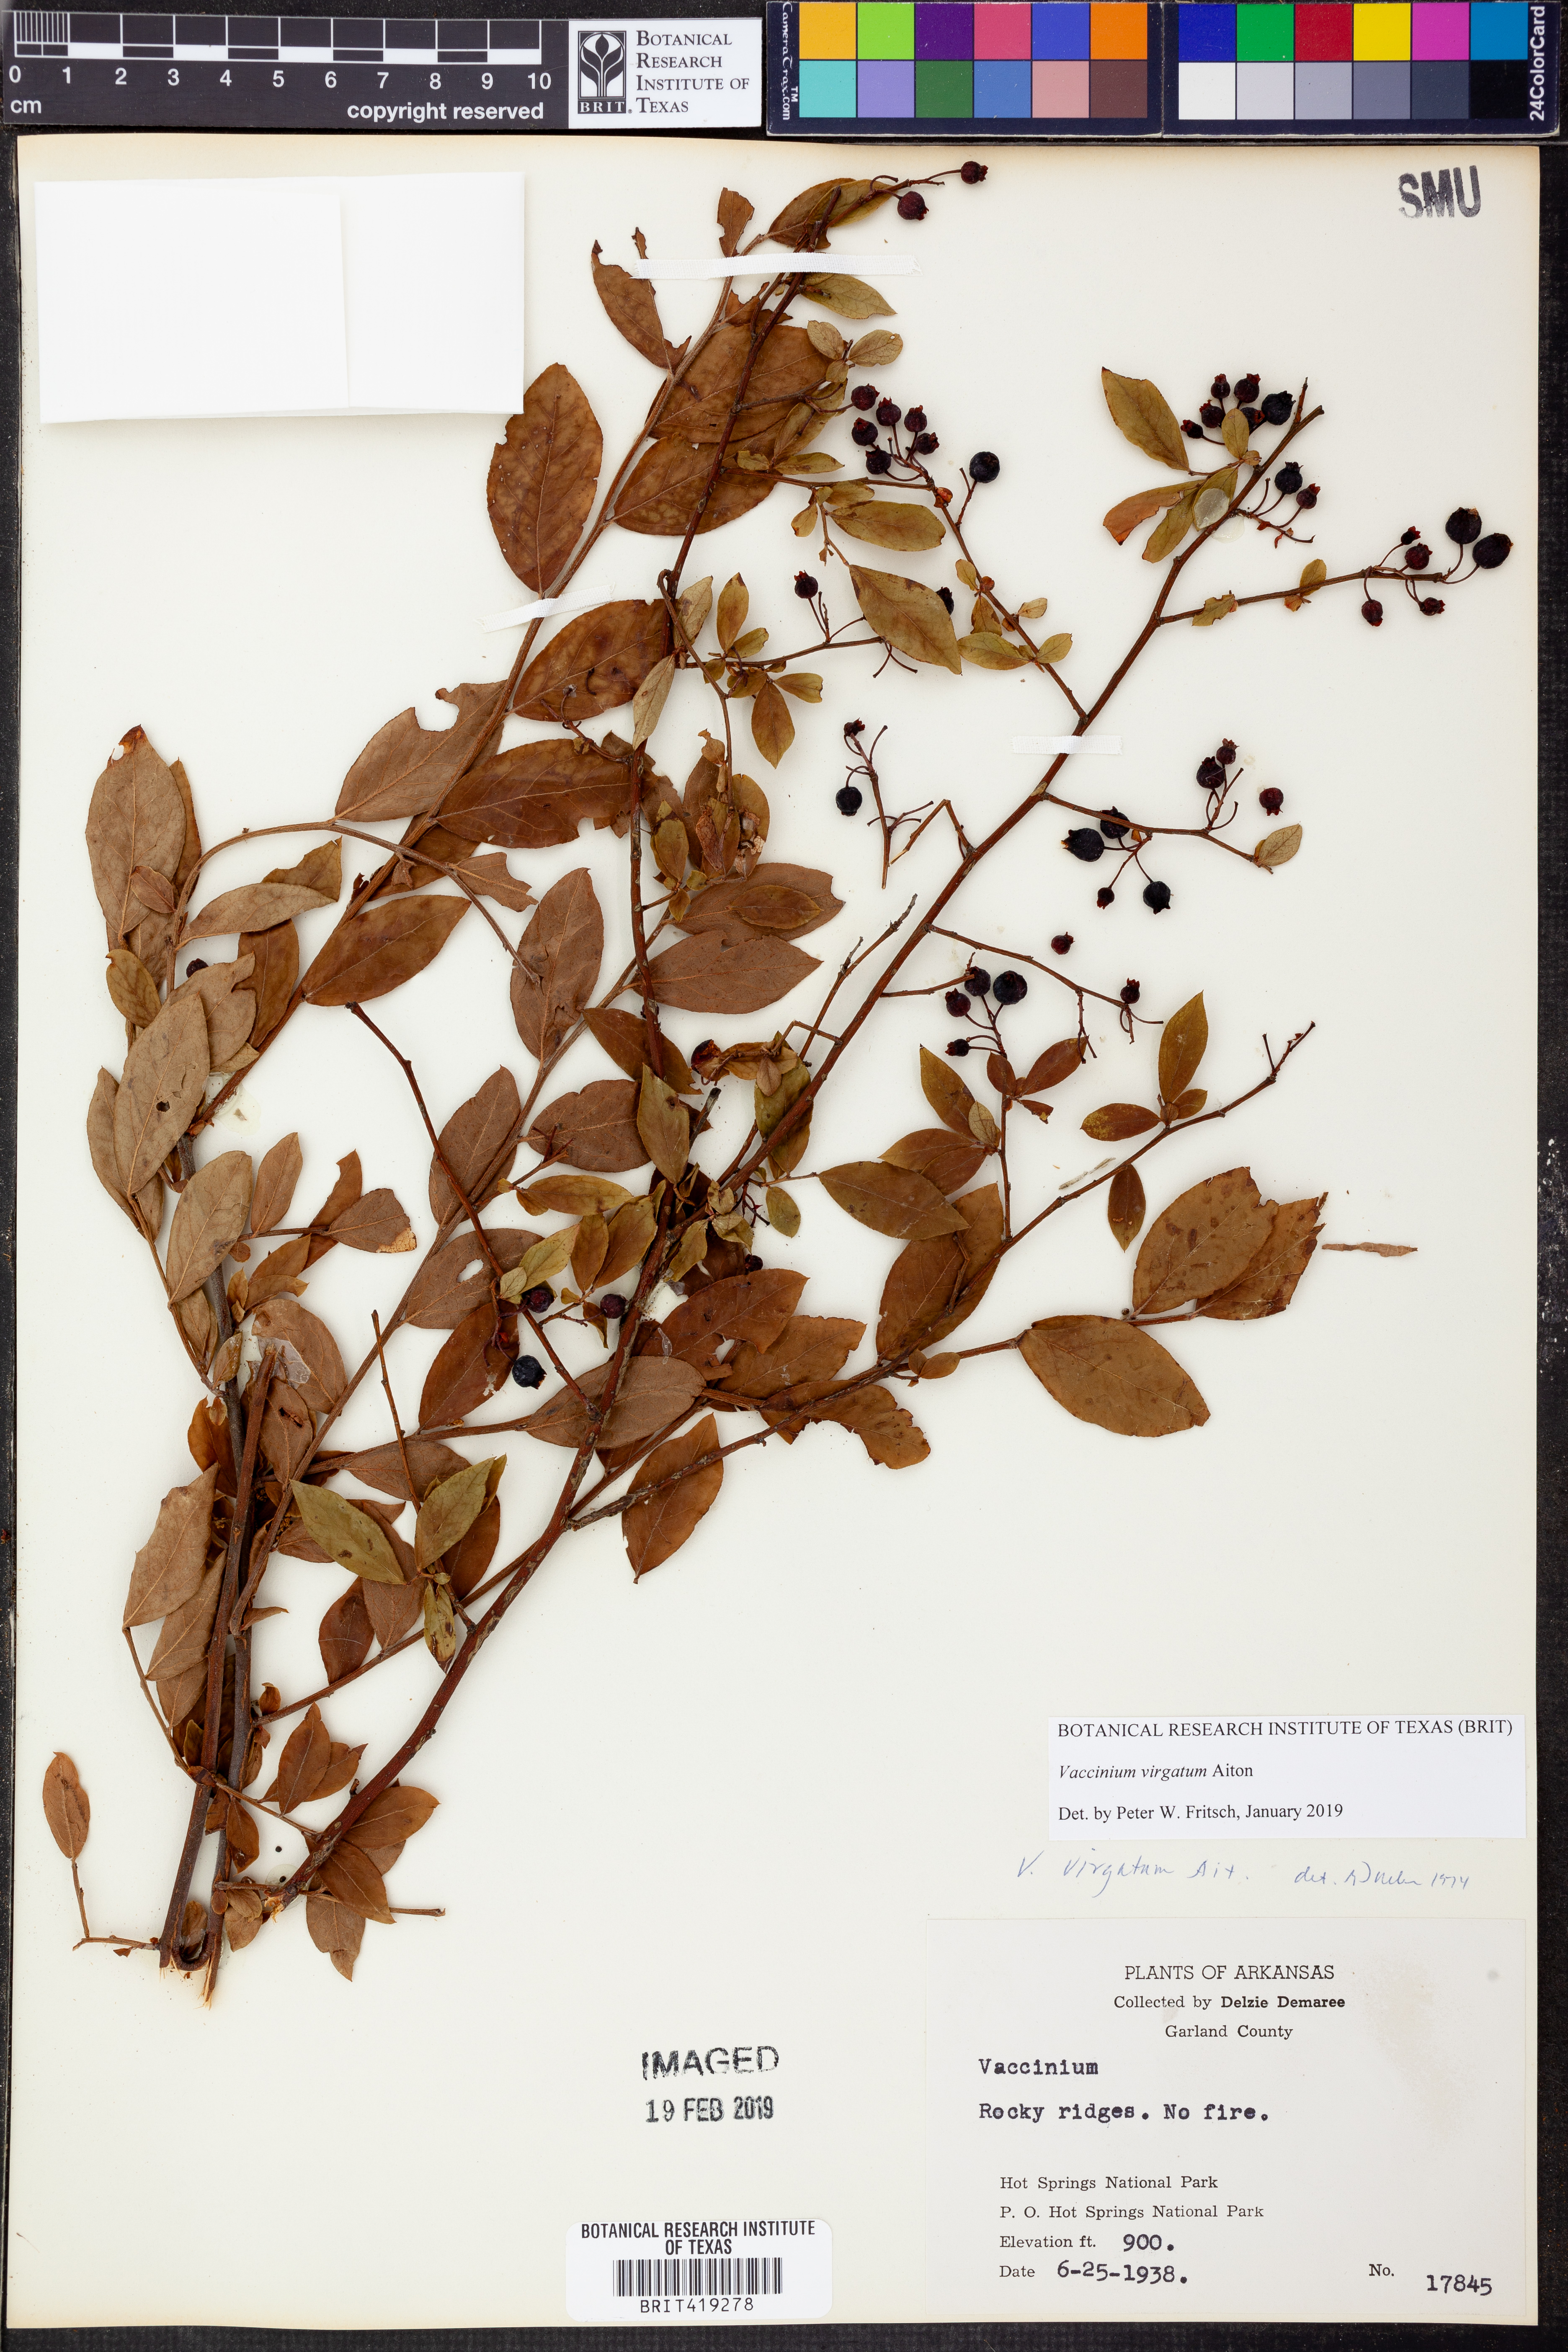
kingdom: Plantae
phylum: Tracheophyta
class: Magnoliopsida
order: Ericales
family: Ericaceae
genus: Vaccinium
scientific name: Vaccinium corymbosum
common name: Blueberry
